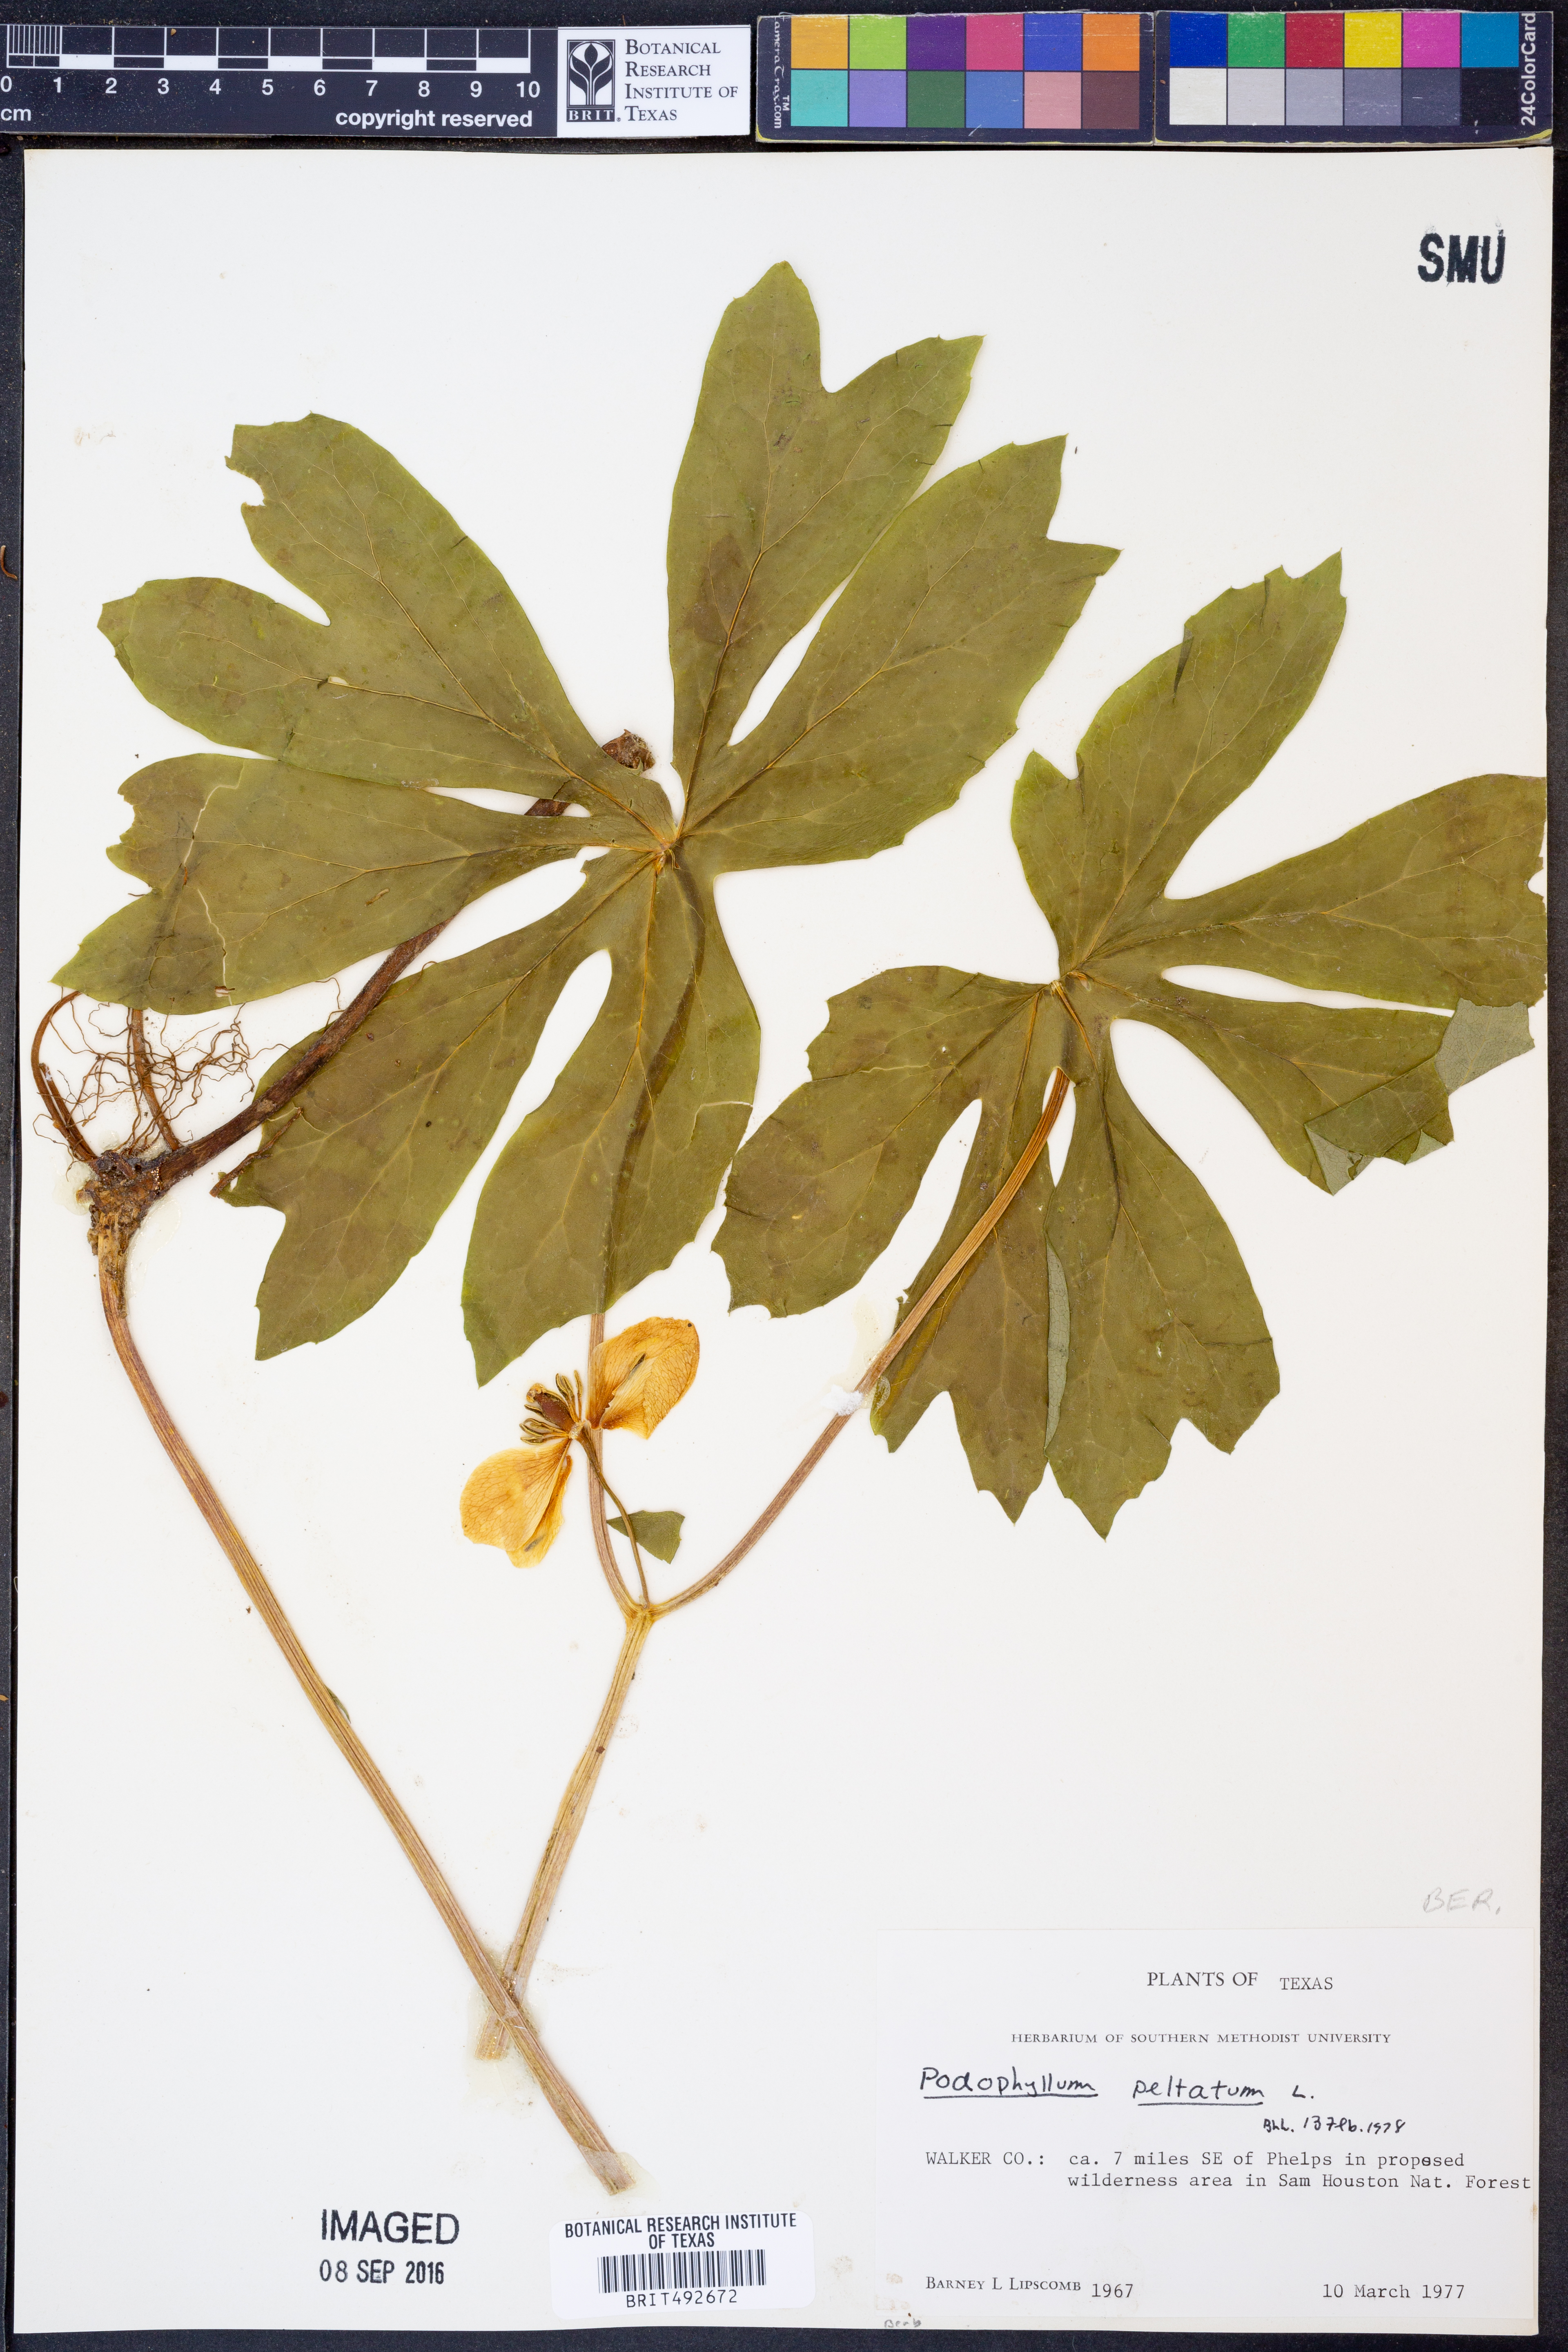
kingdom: Plantae
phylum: Tracheophyta
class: Magnoliopsida
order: Ranunculales
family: Berberidaceae
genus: Podophyllum
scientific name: Podophyllum peltatum
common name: Wild mandrake
